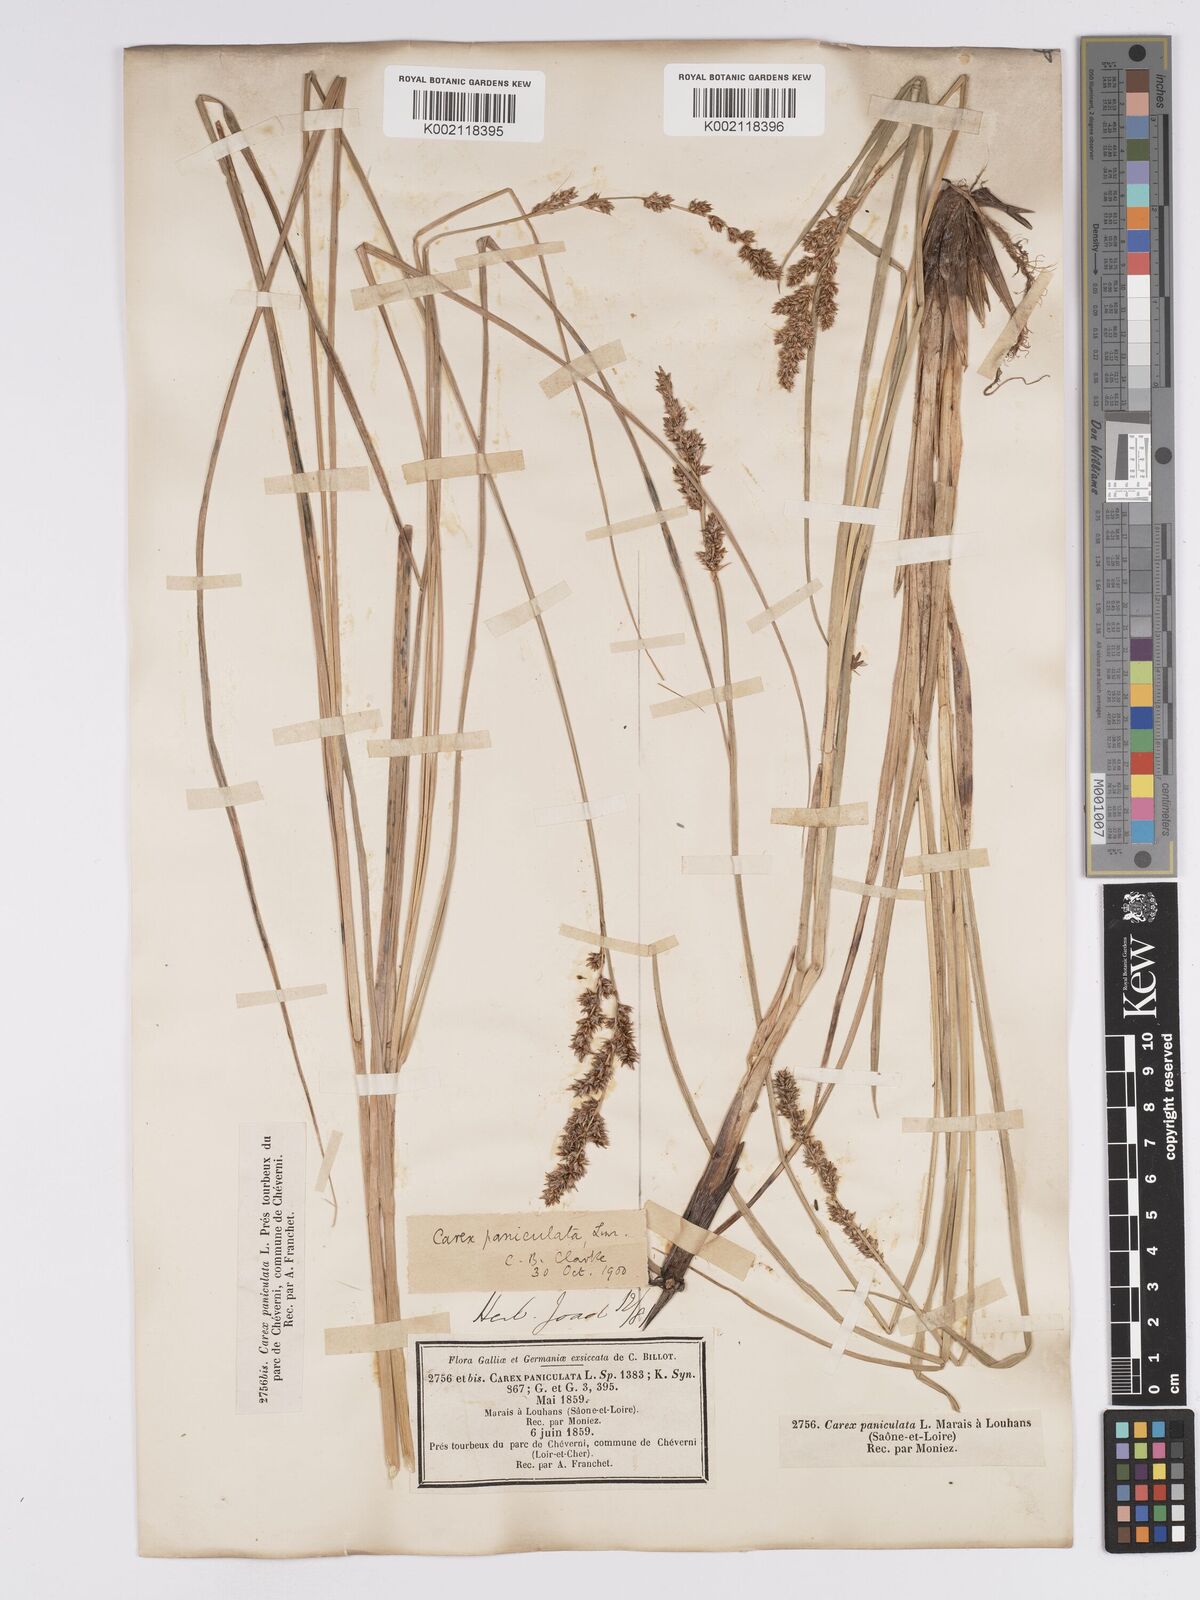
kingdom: Plantae
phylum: Tracheophyta
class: Liliopsida
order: Poales
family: Cyperaceae
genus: Carex
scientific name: Carex paniculata
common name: Greater tussock-sedge
